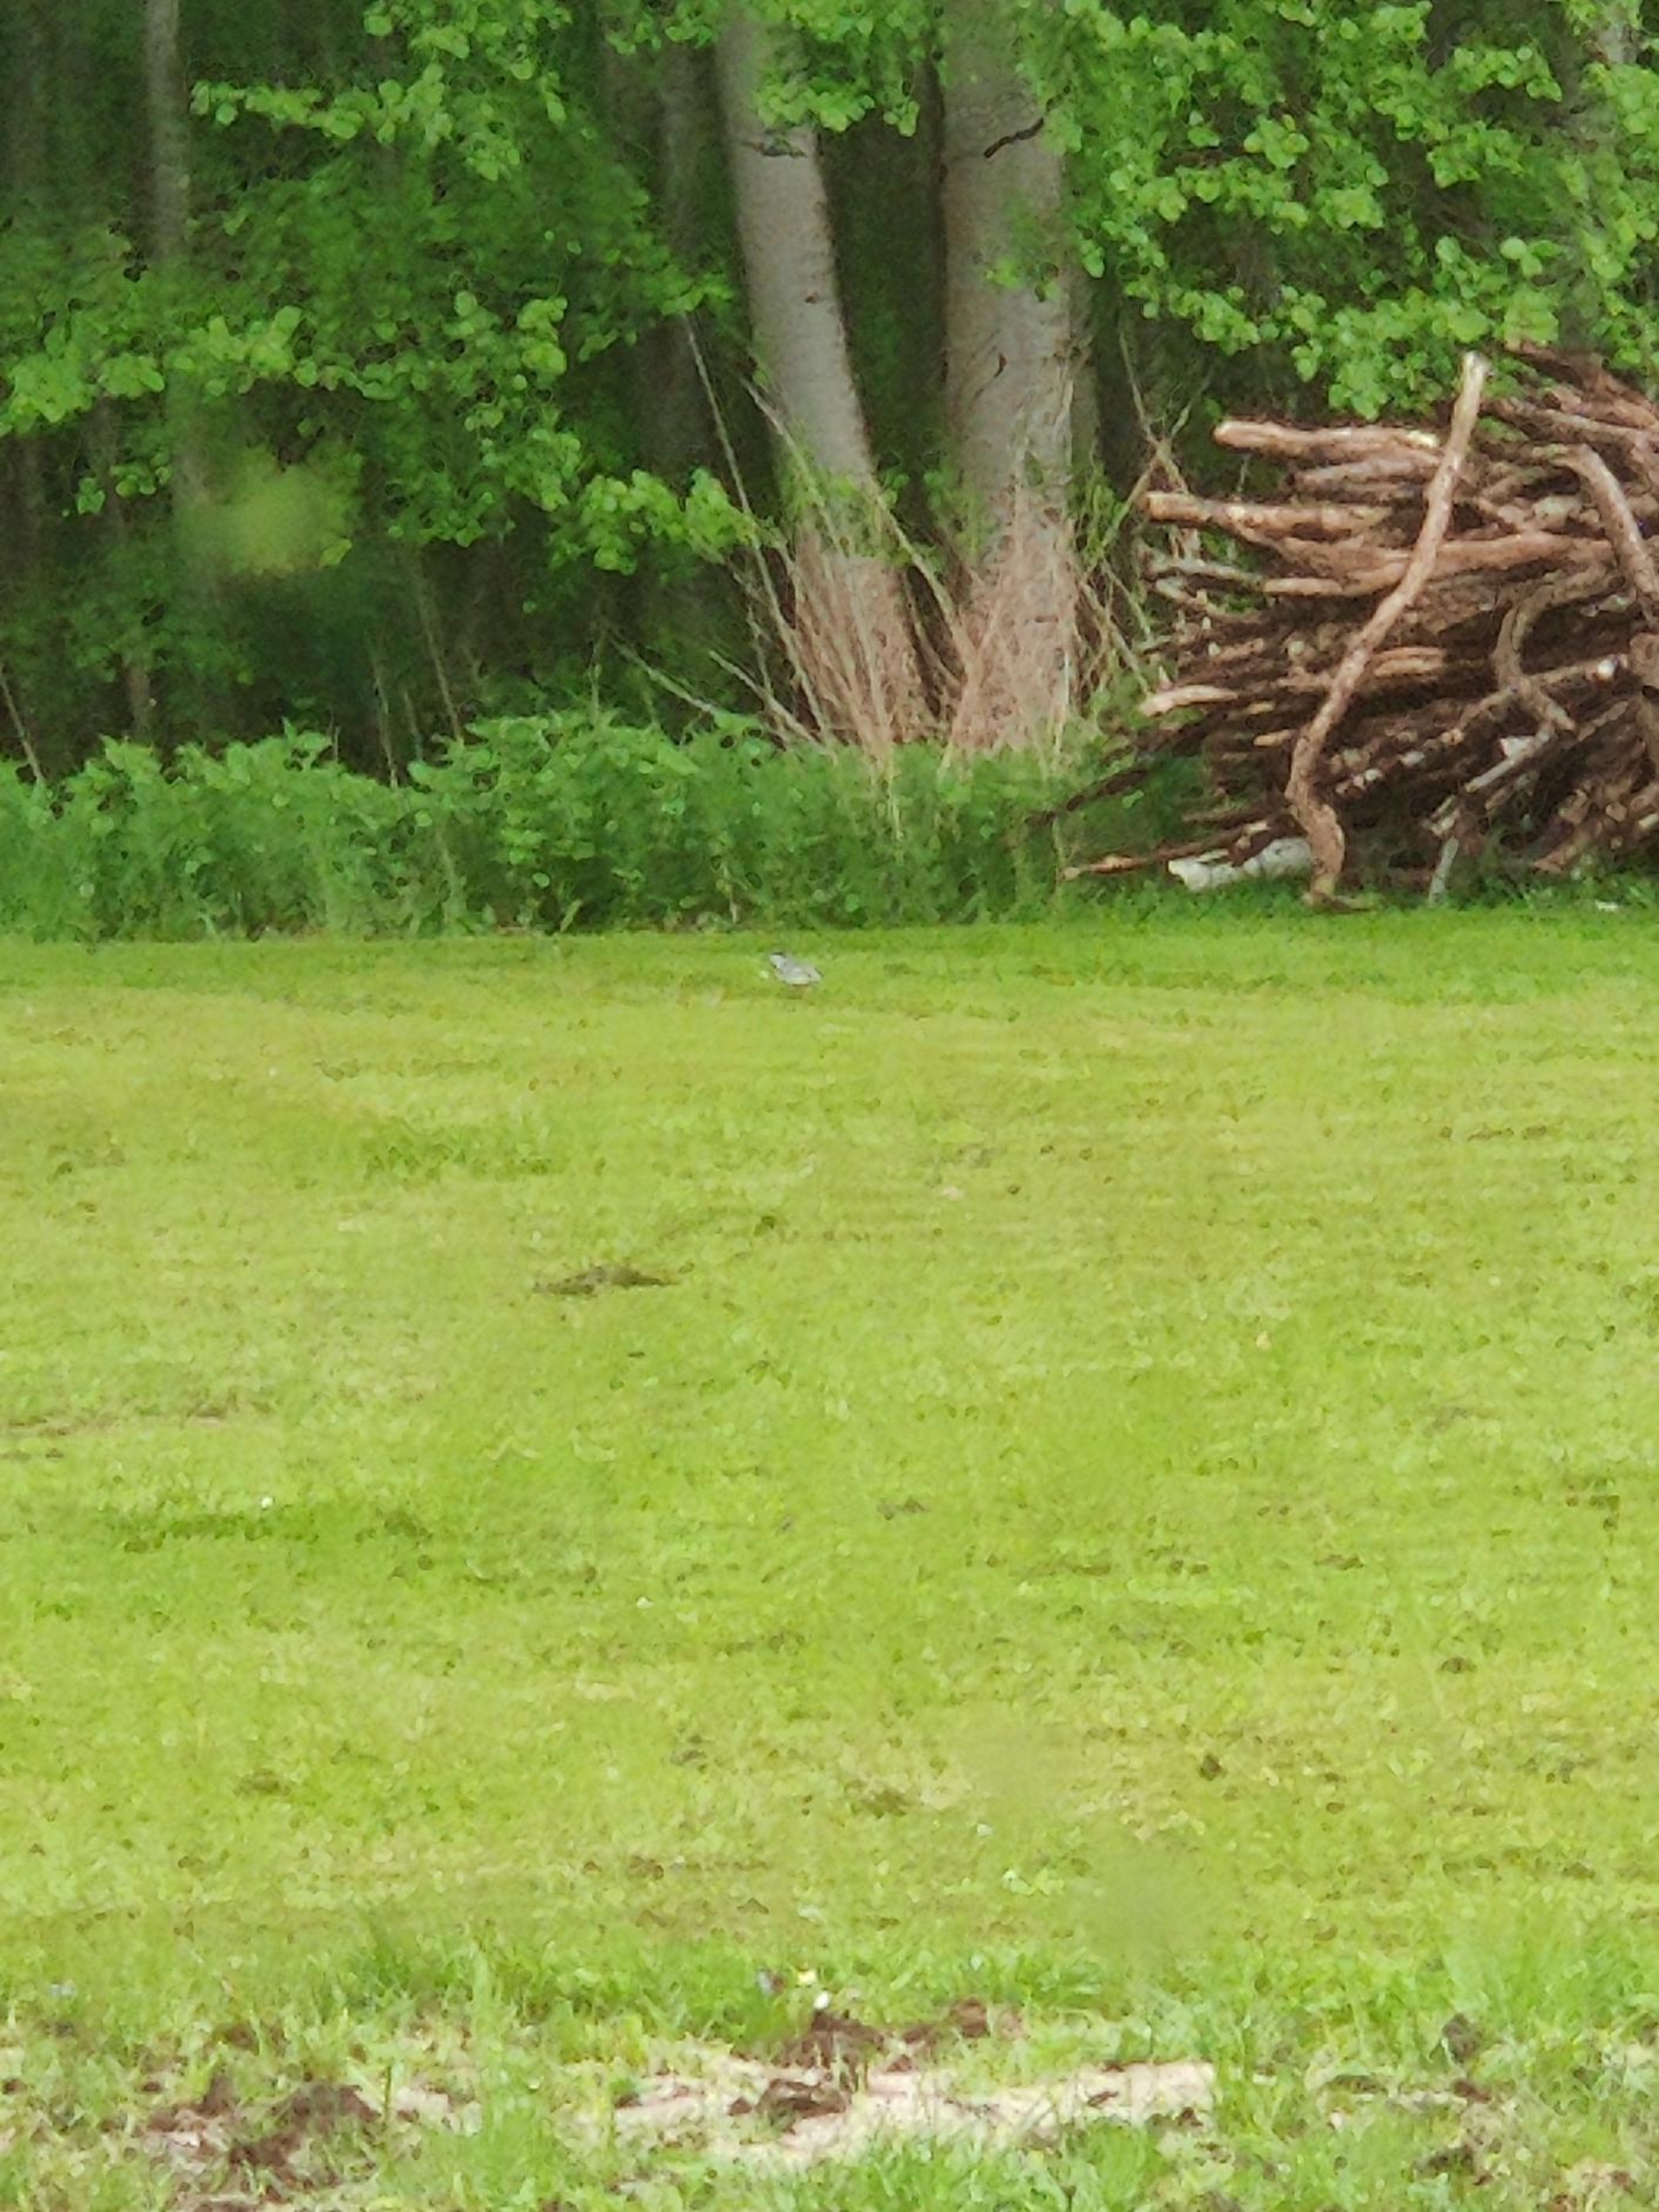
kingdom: Animalia
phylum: Chordata
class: Aves
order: Passeriformes
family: Motacillidae
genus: Motacilla
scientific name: Motacilla alba
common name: Hvid vipstjert
